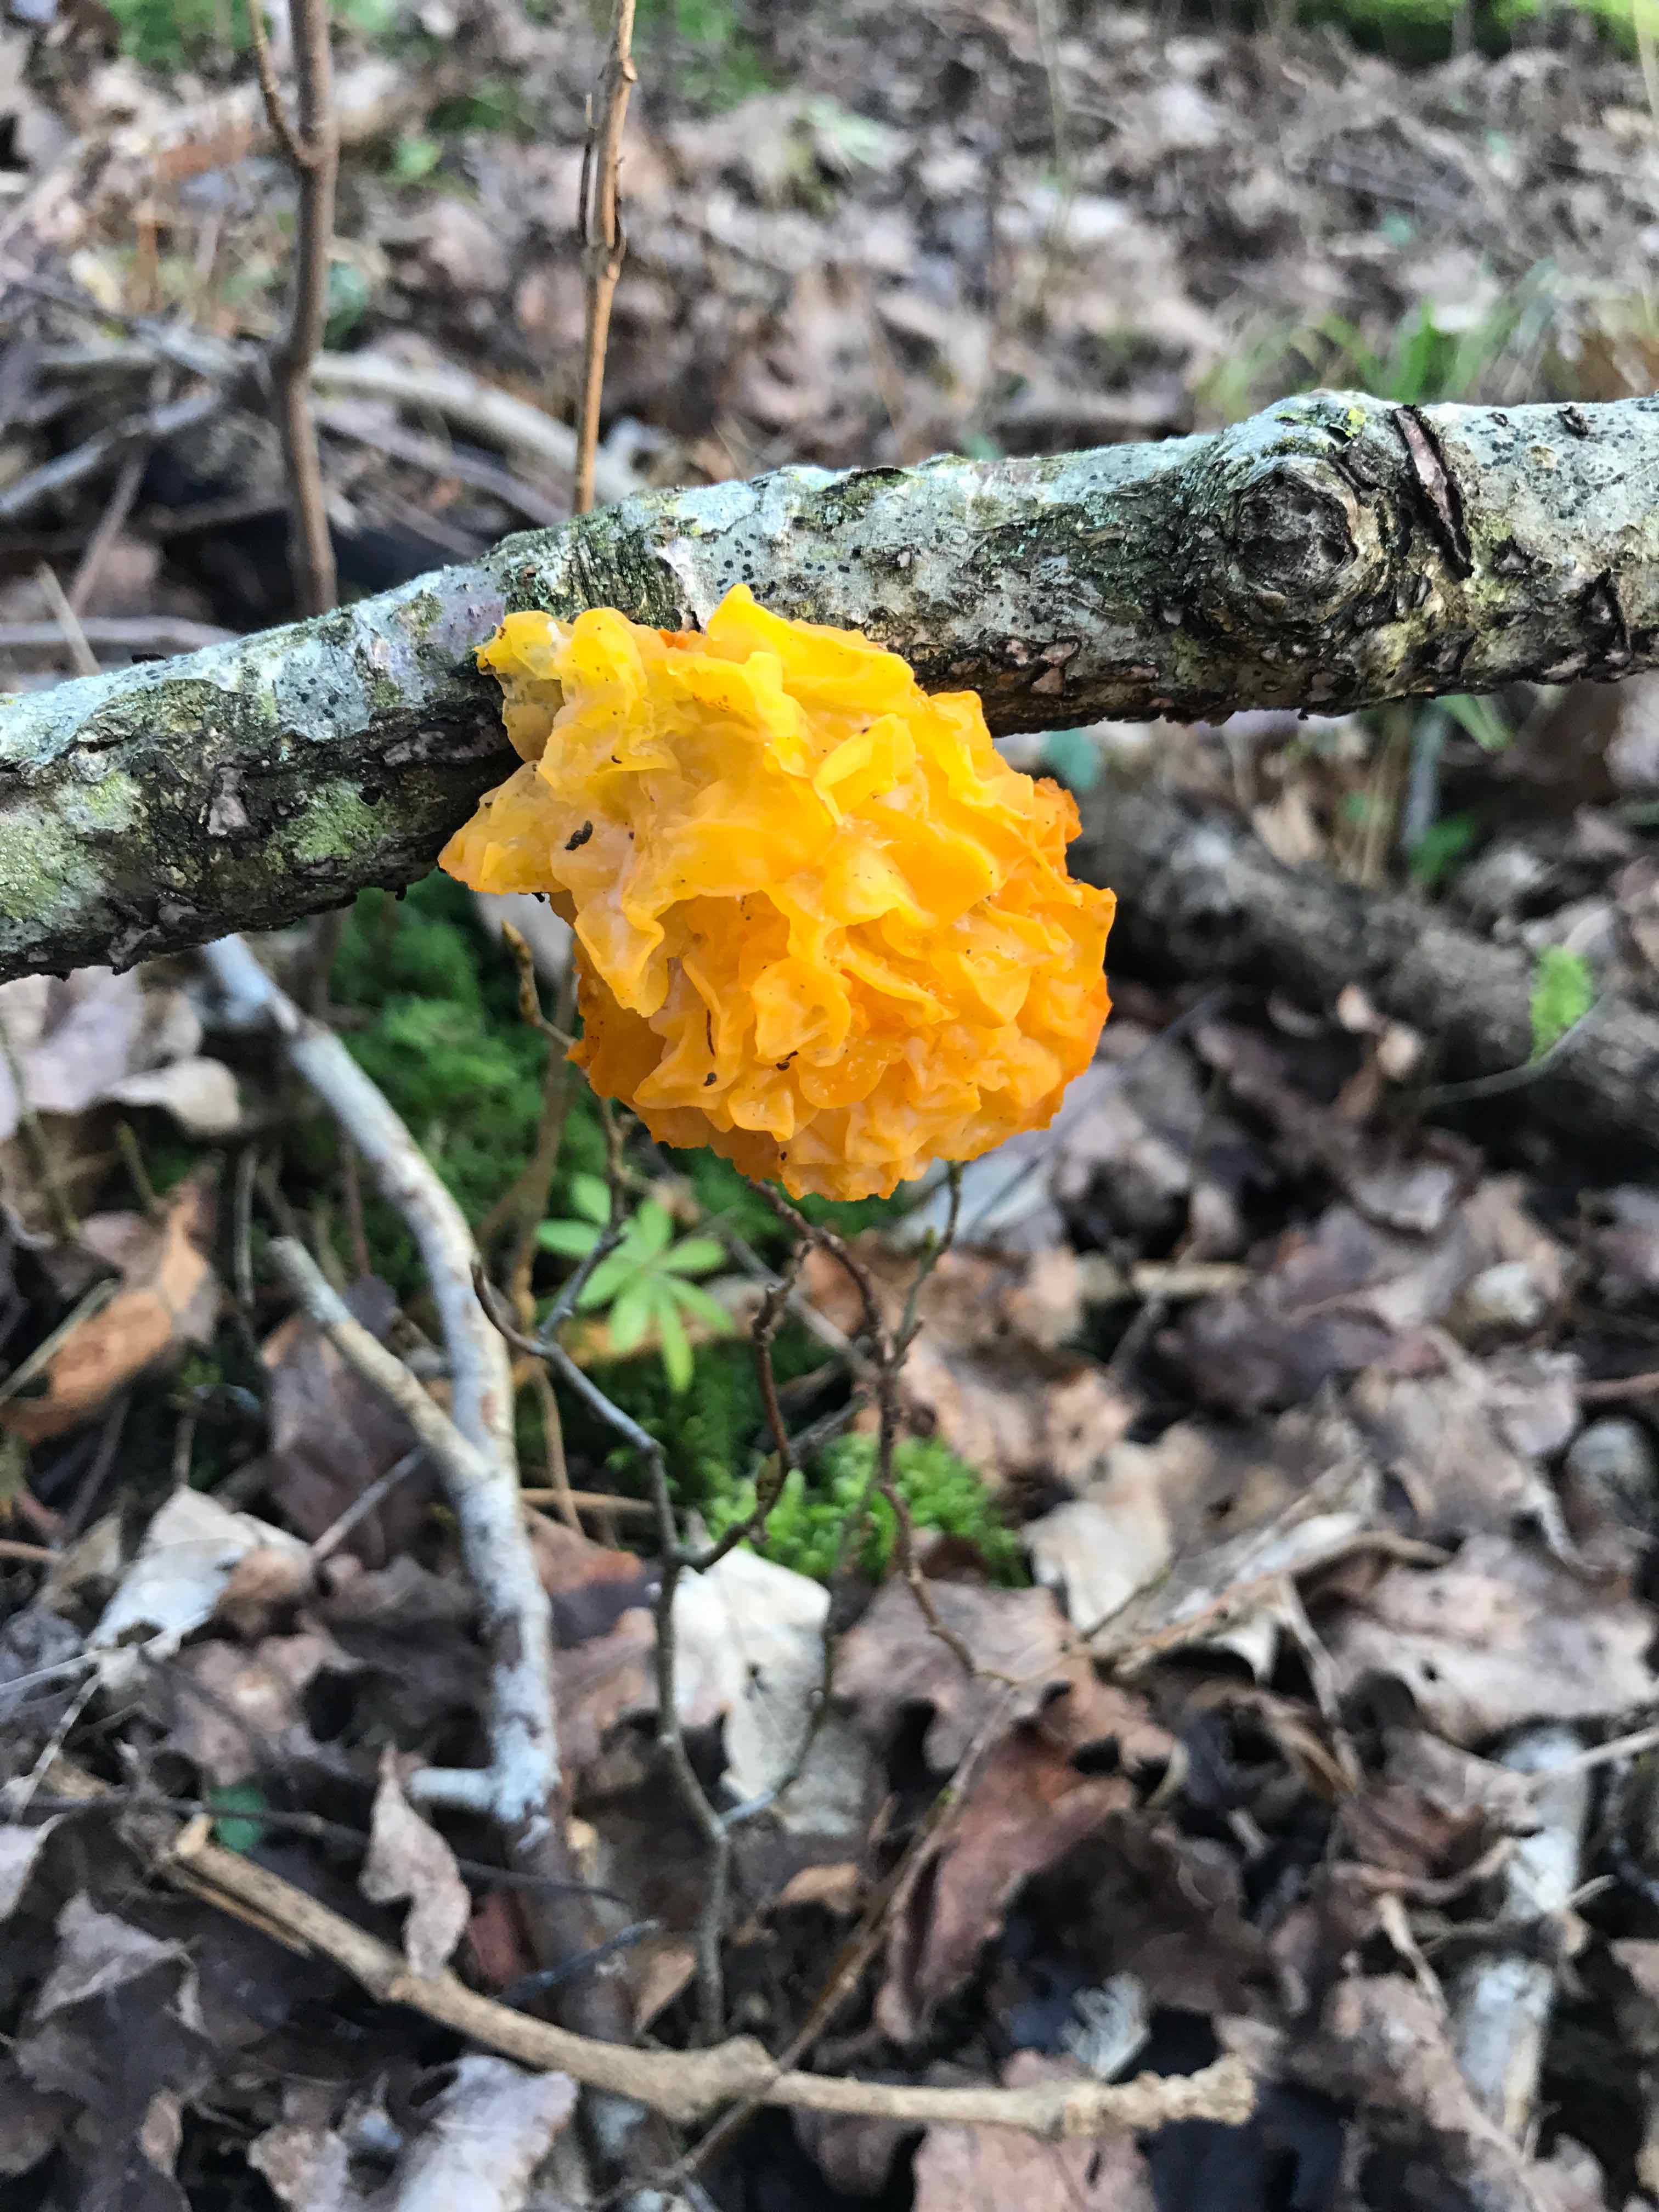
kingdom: Fungi
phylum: Basidiomycota
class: Tremellomycetes
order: Tremellales
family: Tremellaceae
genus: Tremella
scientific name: Tremella mesenterica
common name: gul bævresvamp
